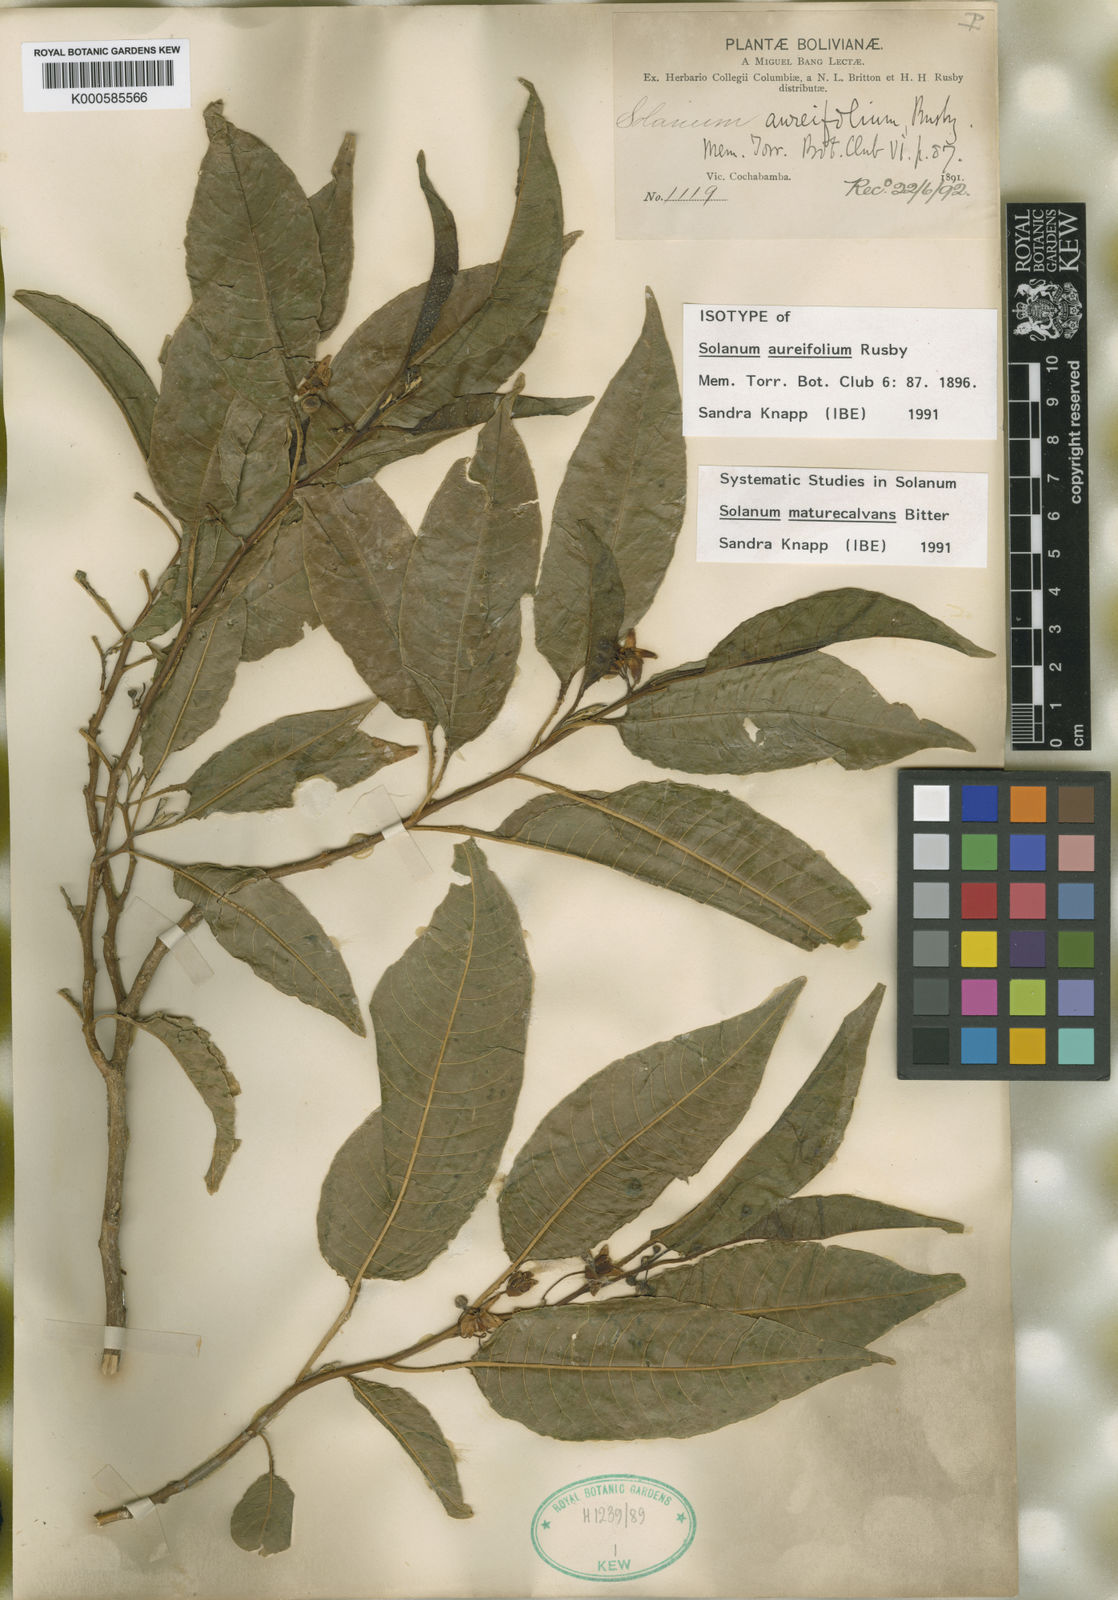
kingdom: Plantae
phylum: Tracheophyta
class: Magnoliopsida
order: Solanales
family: Solanaceae
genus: Solanum
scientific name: Solanum maturecalvans
